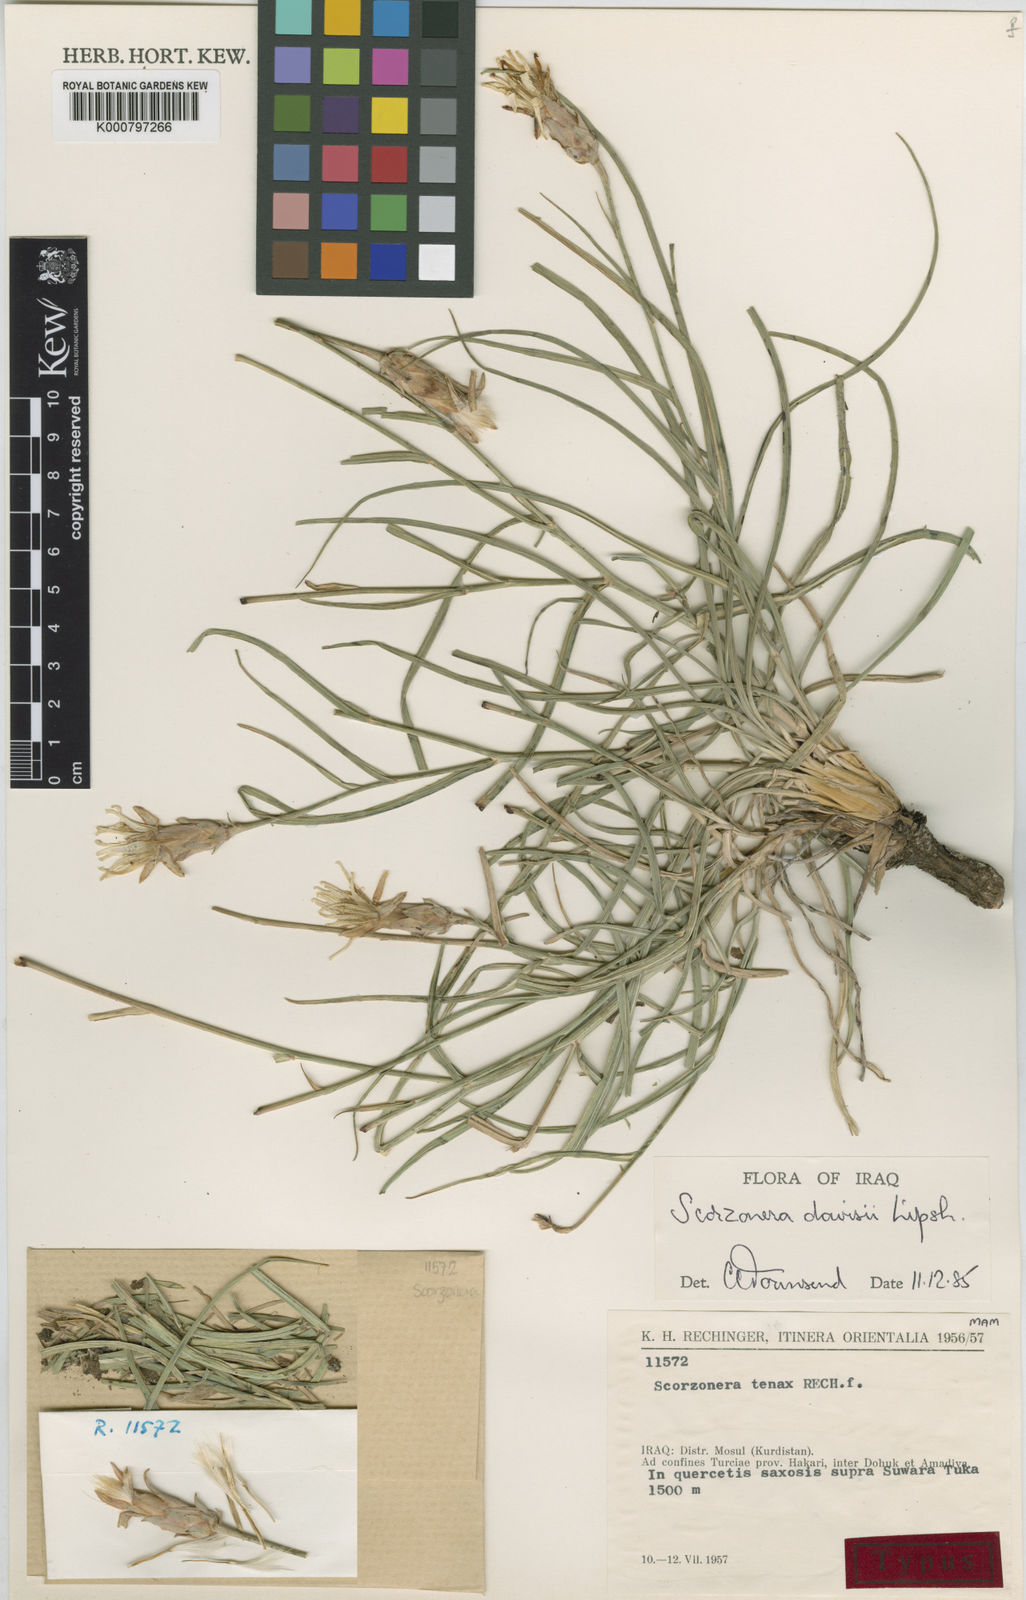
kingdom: Plantae
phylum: Tracheophyta
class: Magnoliopsida
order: Asterales
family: Asteraceae
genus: Candollea
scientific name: Candollea davisii
